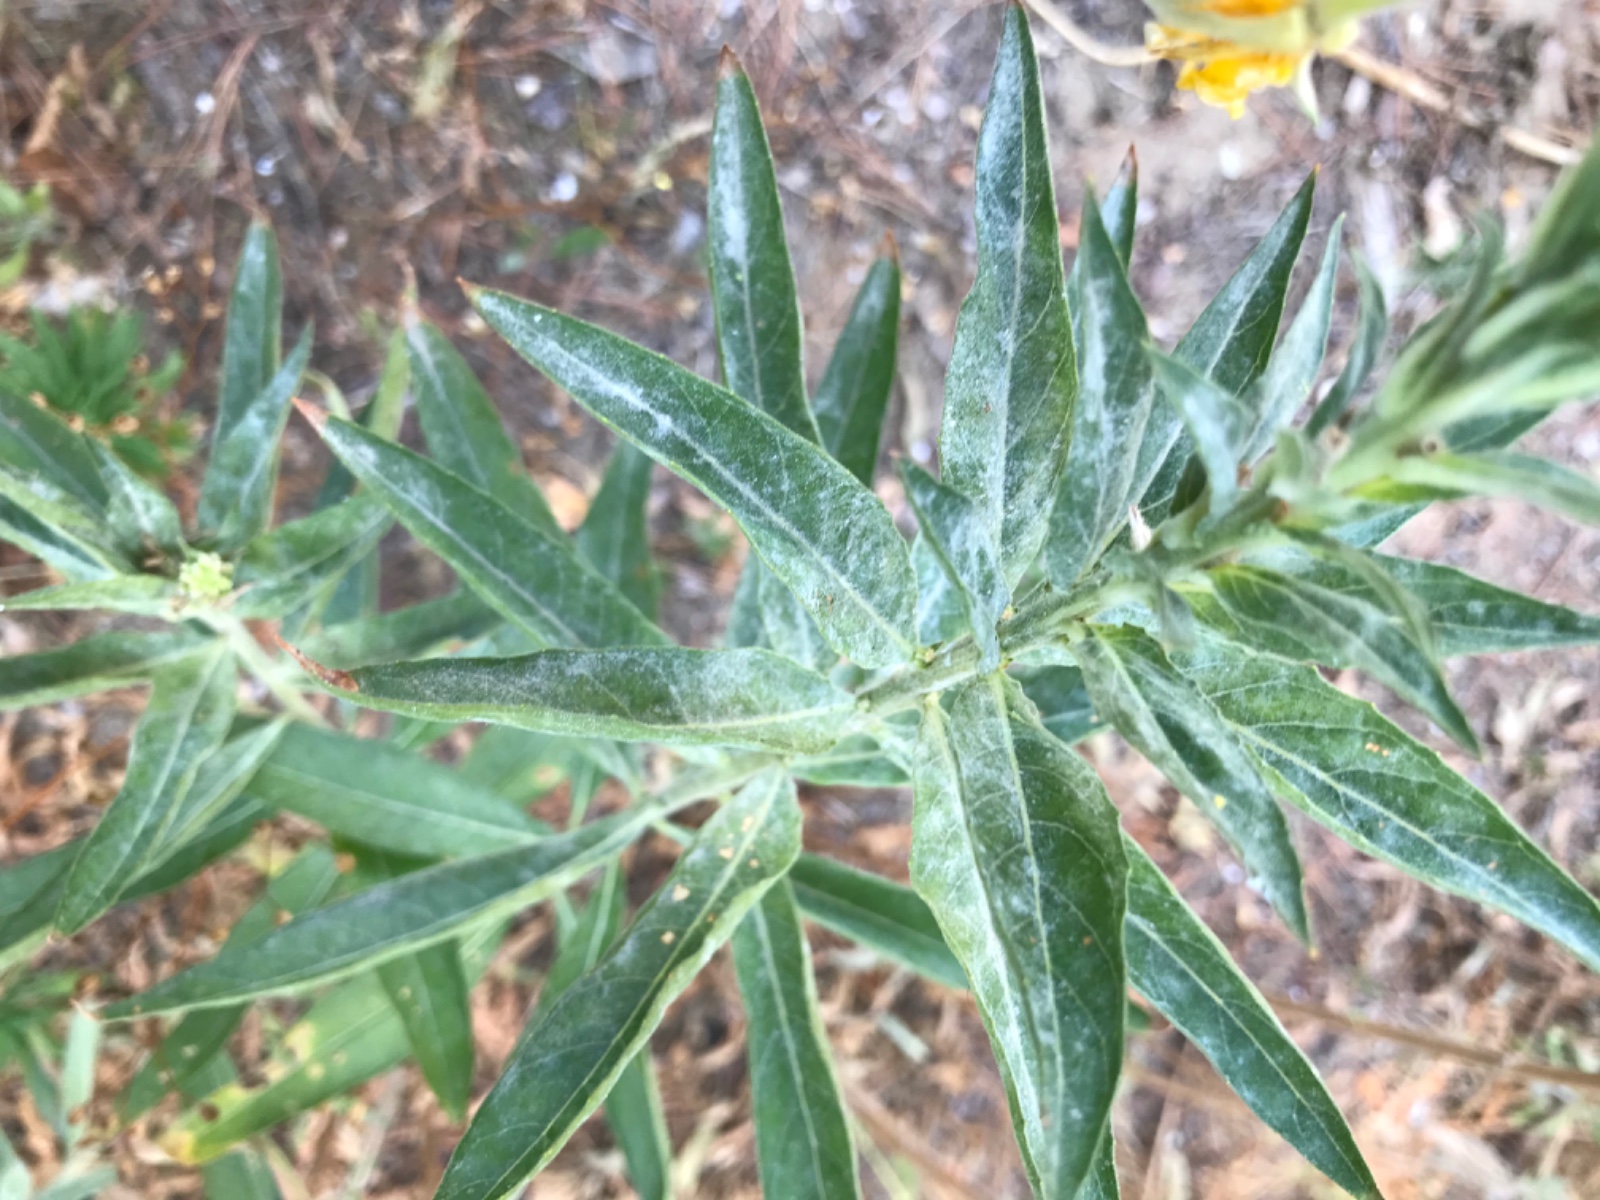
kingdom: Fungi
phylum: Ascomycota
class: Leotiomycetes
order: Helotiales
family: Erysiphaceae
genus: Erysiphe
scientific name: Erysiphe howeana
